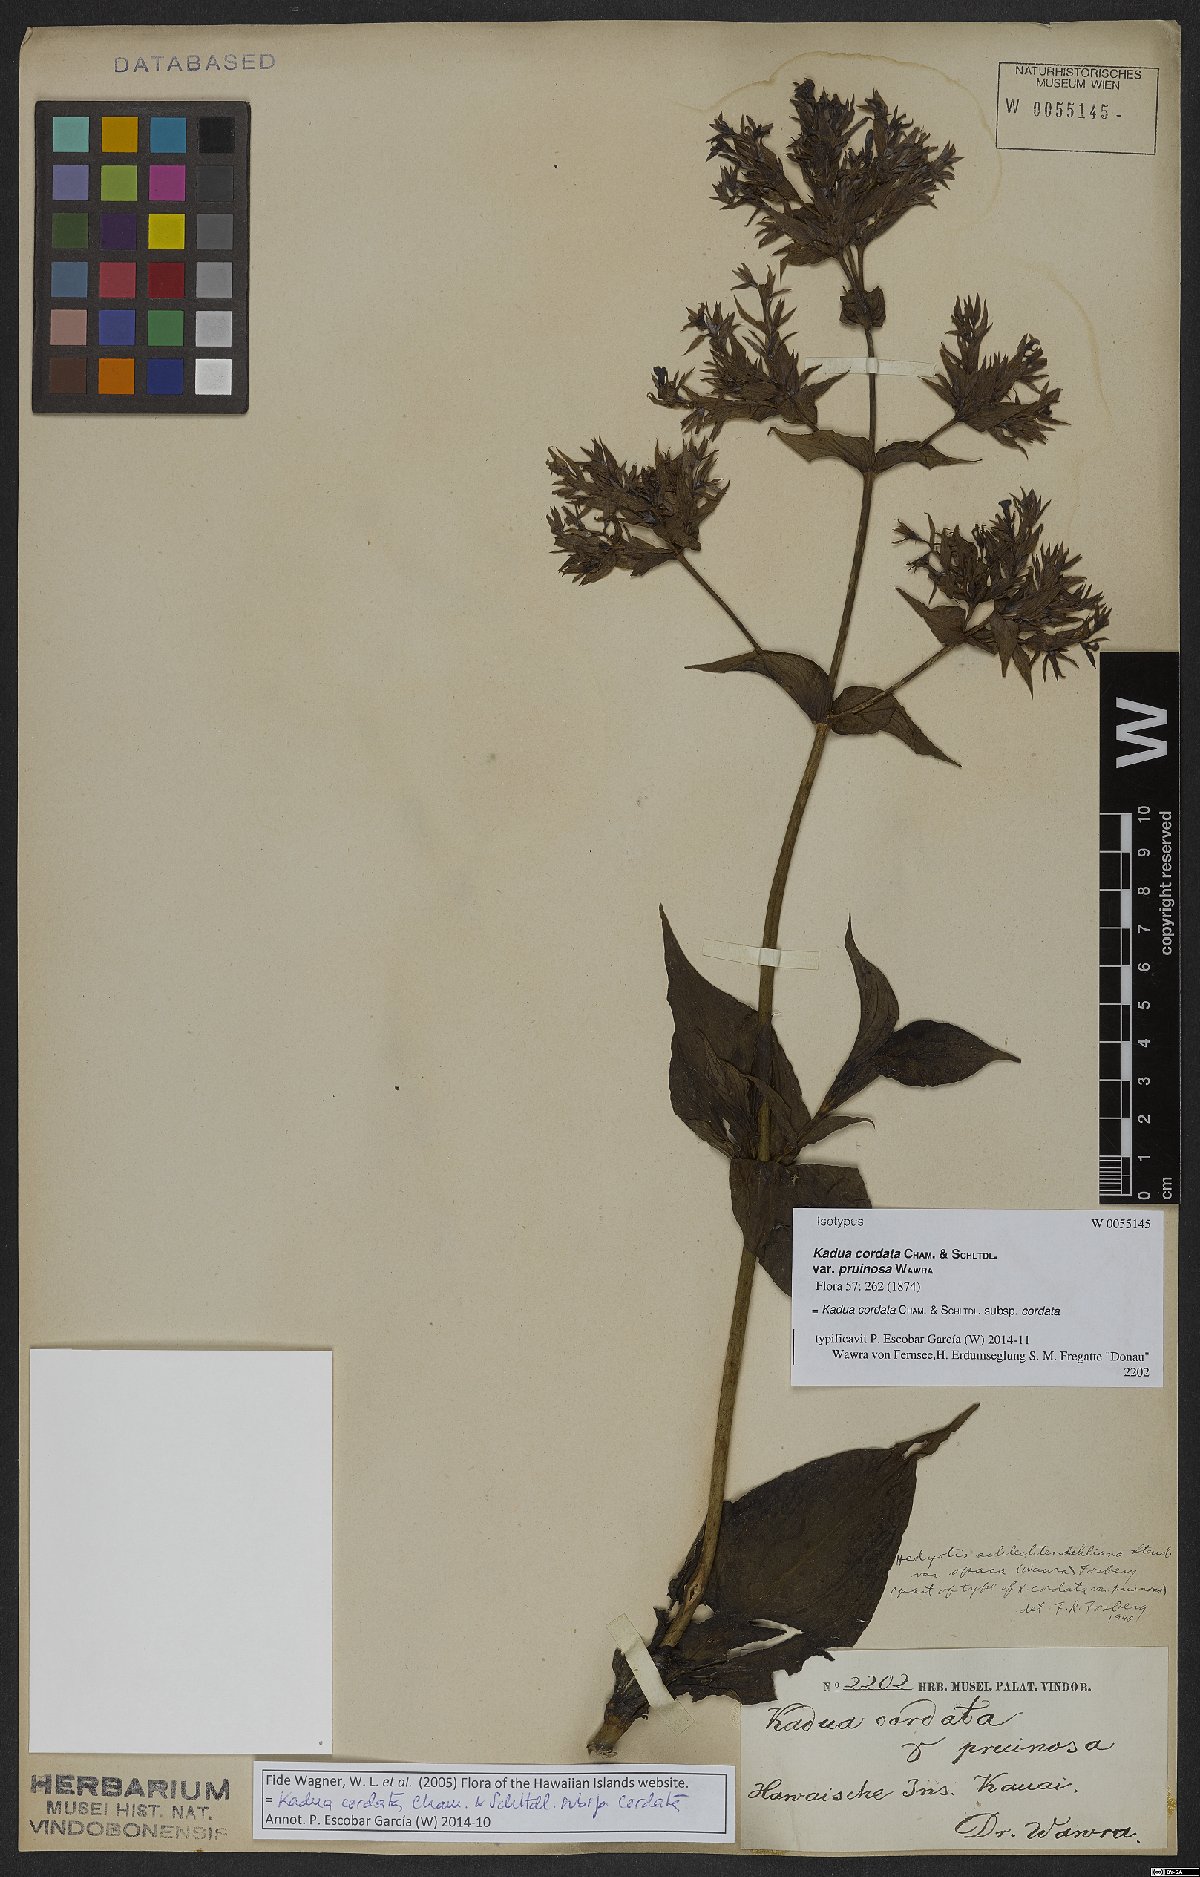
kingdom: Plantae
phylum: Tracheophyta
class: Magnoliopsida
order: Gentianales
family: Rubiaceae
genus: Kadua
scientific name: Kadua cordata
